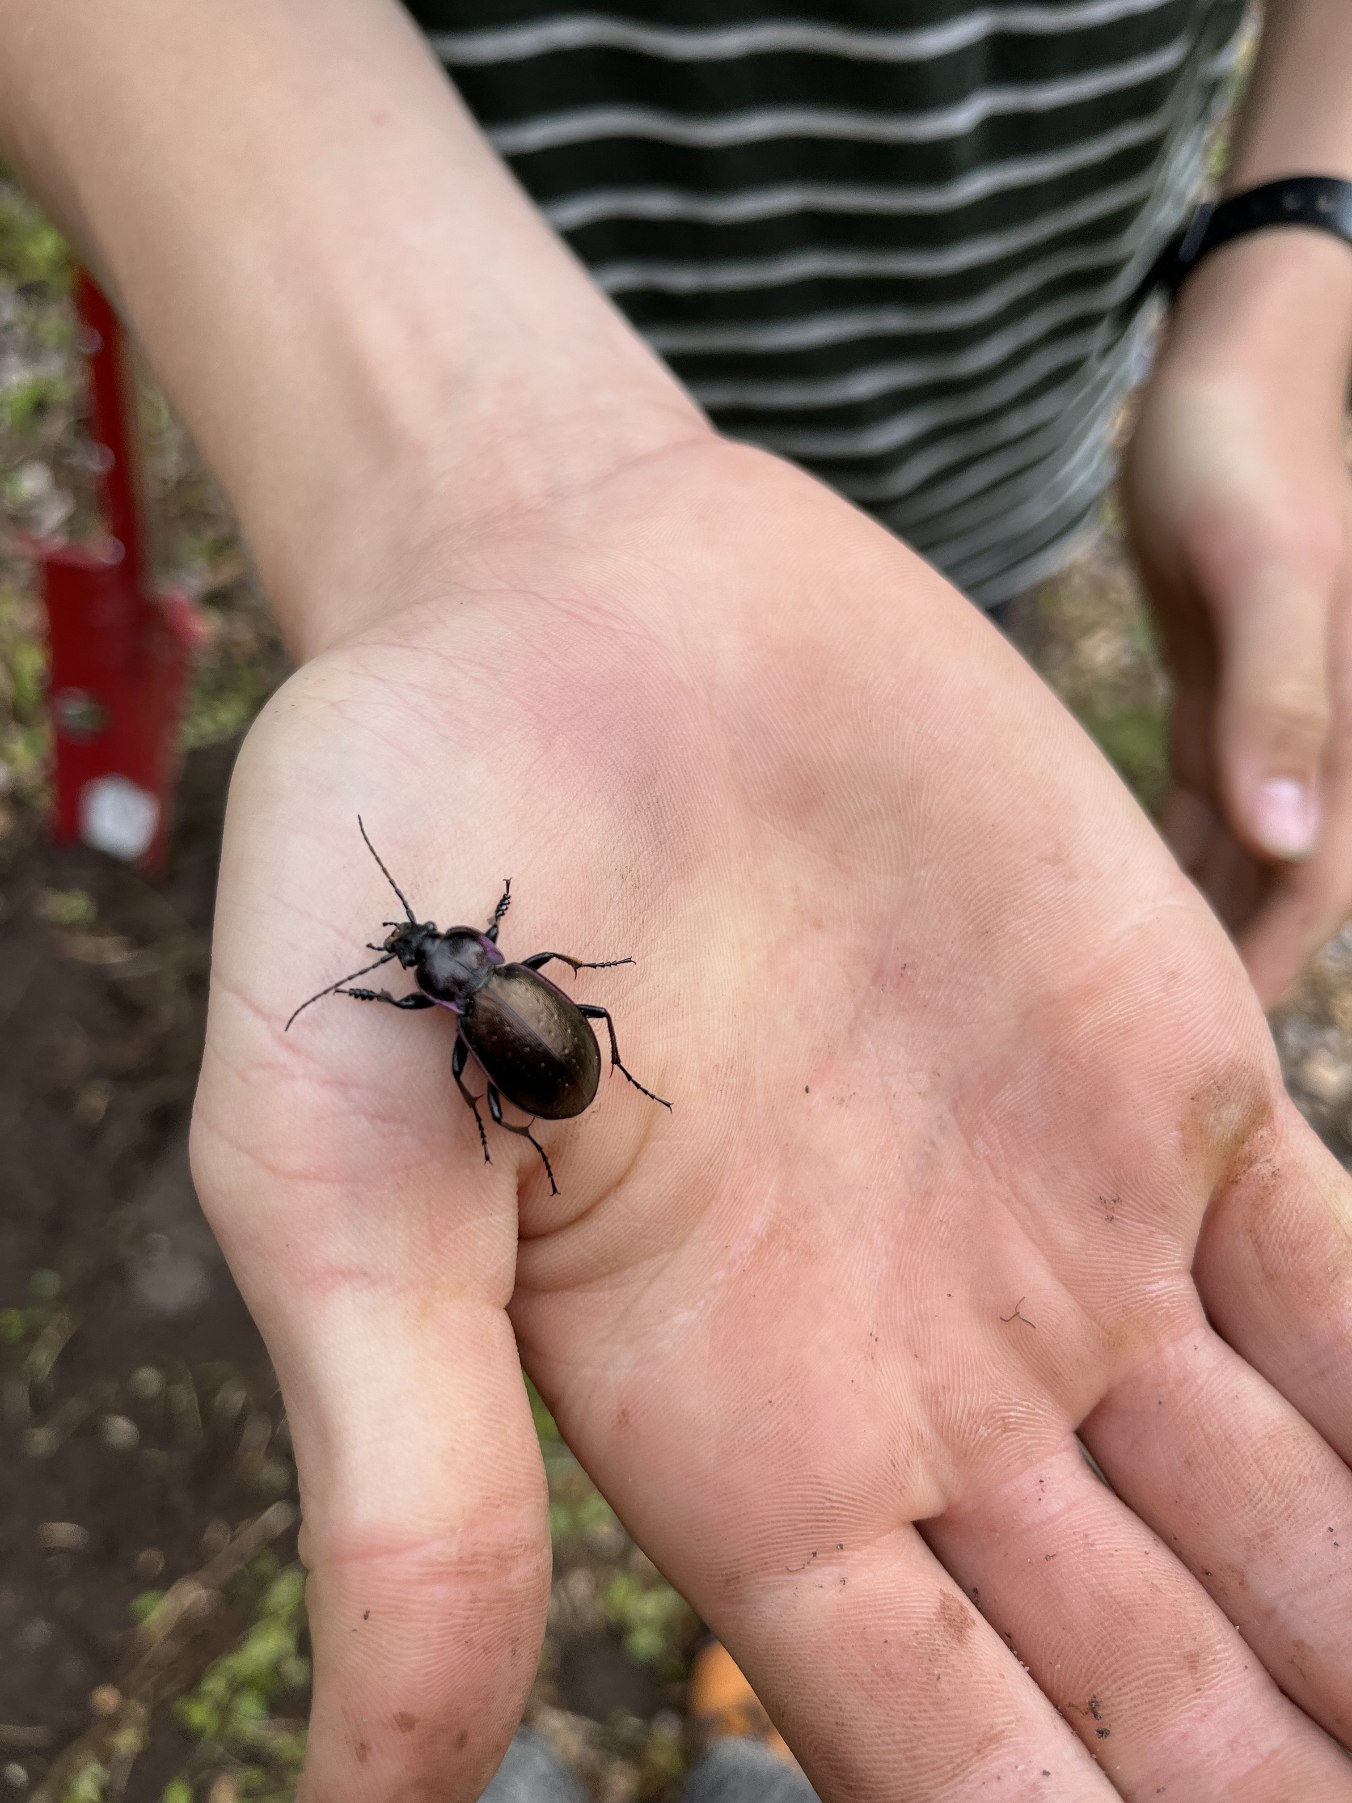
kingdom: Animalia
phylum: Arthropoda
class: Insecta
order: Coleoptera
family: Carabidae
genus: Carabus
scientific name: Carabus nemoralis
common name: Kratløber
